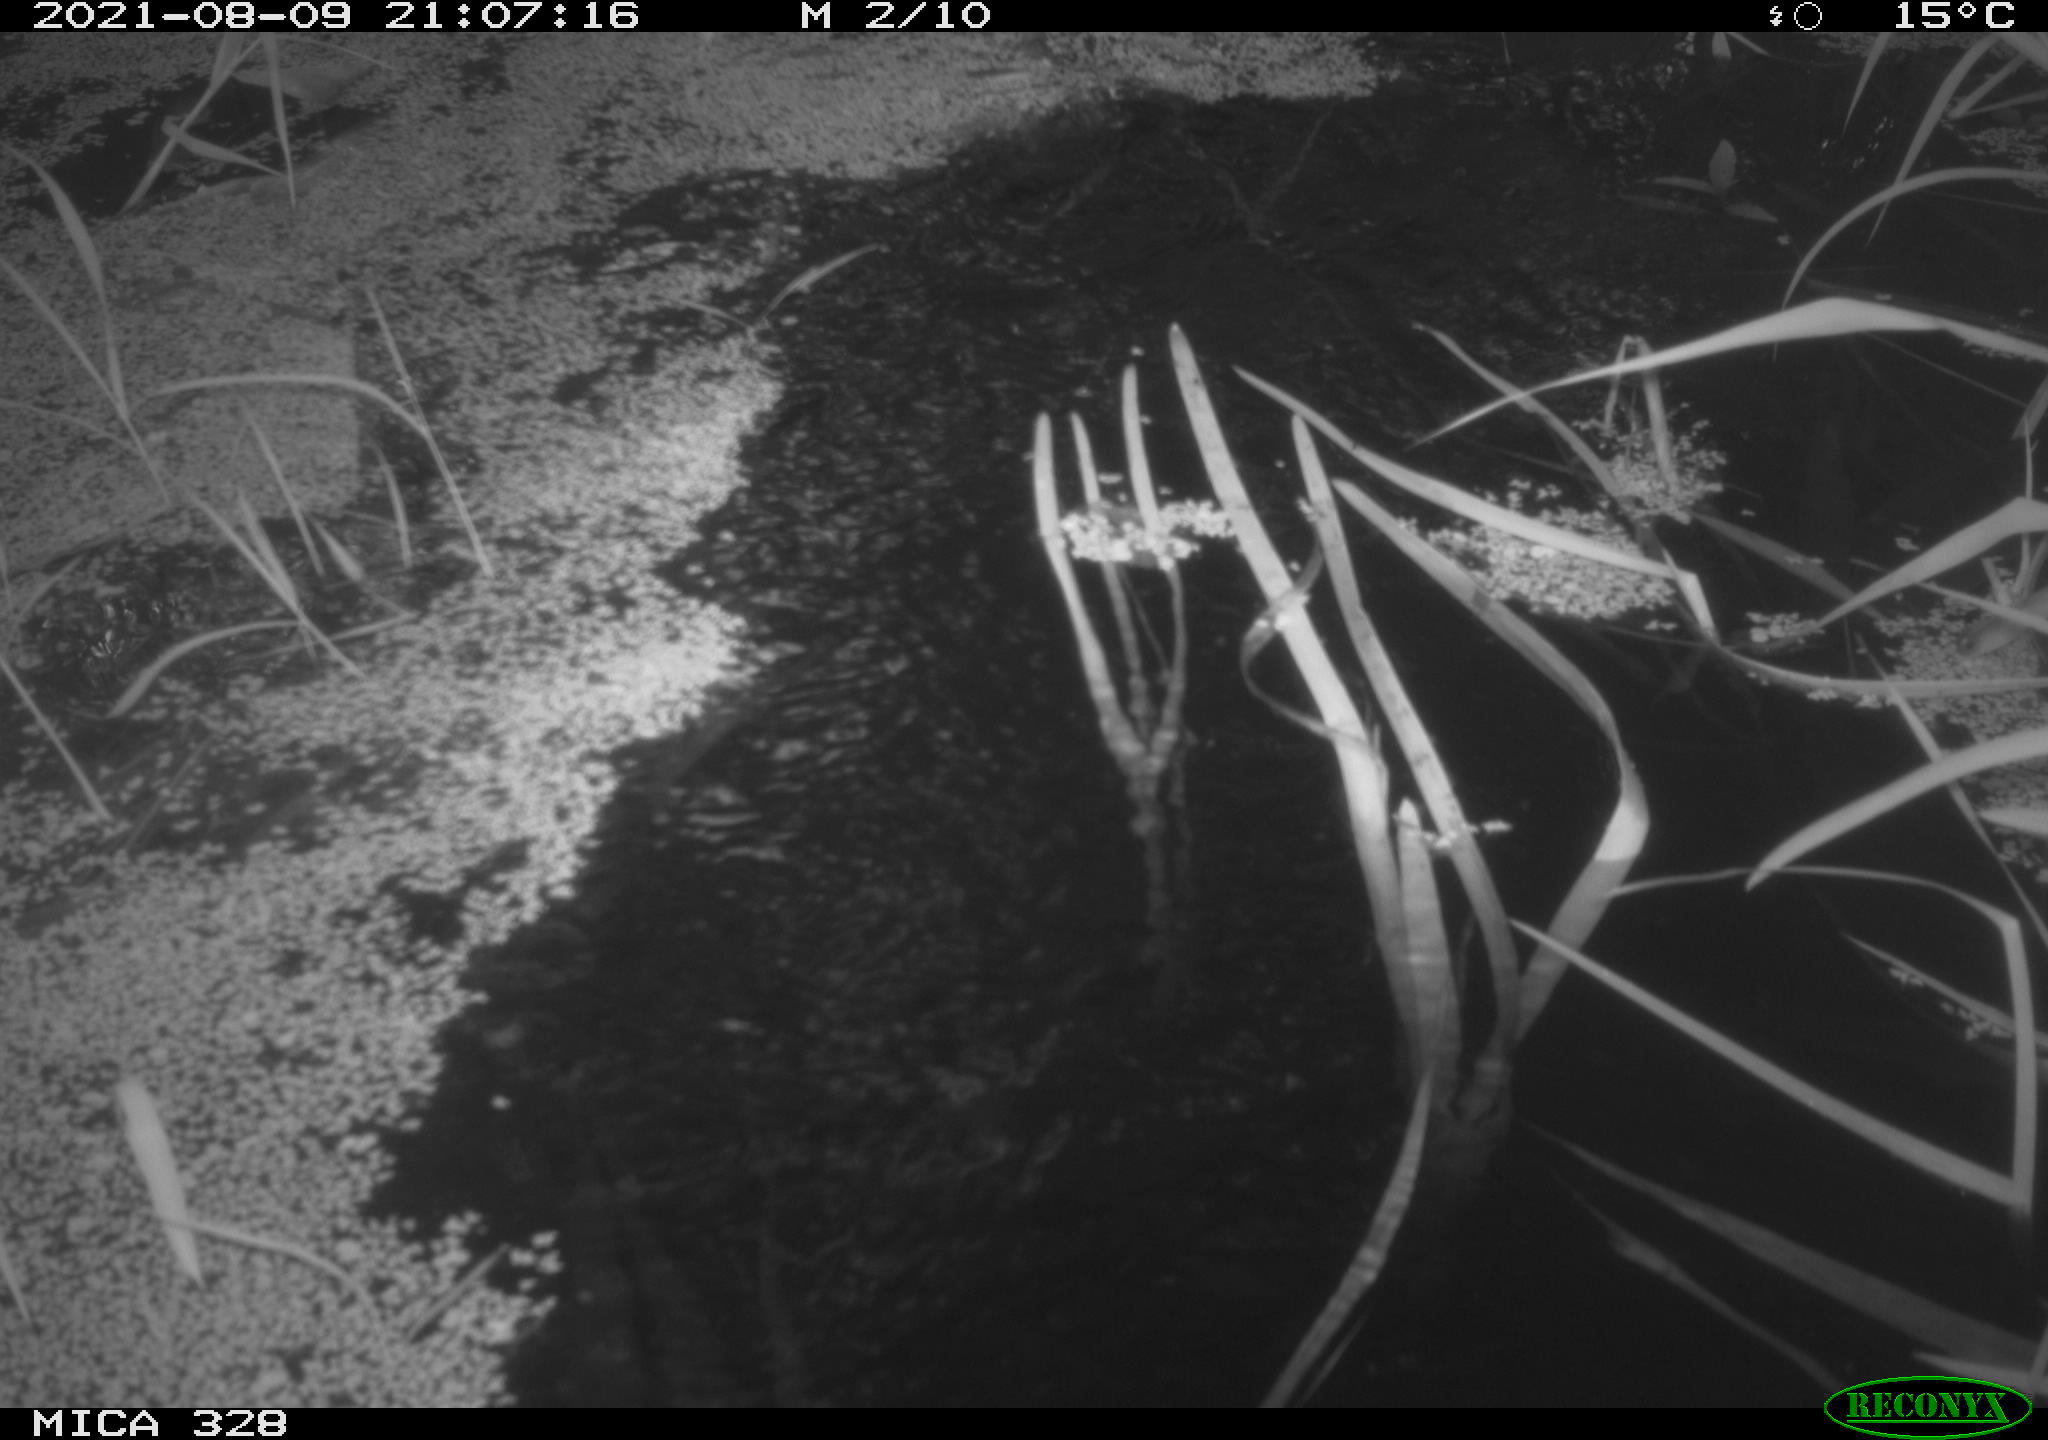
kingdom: Animalia
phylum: Chordata
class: Mammalia
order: Rodentia
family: Cricetidae
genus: Ondatra
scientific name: Ondatra zibethicus
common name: Muskrat
